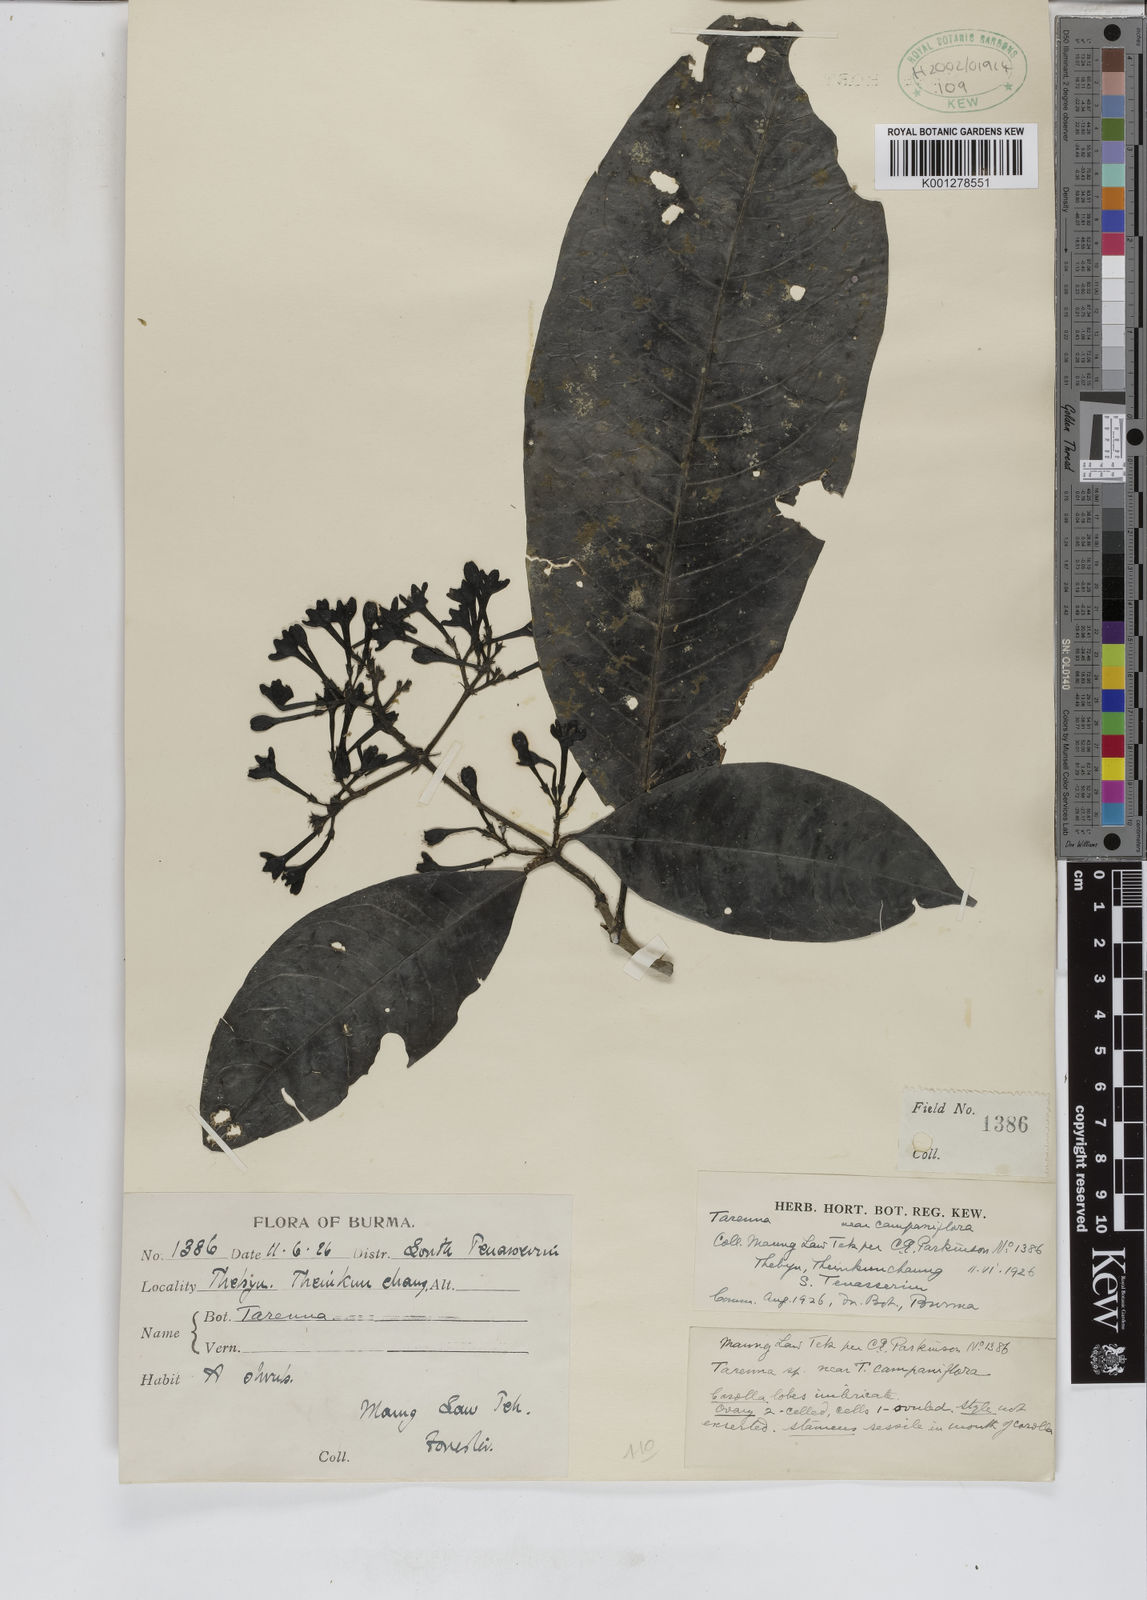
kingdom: Plantae
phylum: Tracheophyta
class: Magnoliopsida
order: Gentianales
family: Rubiaceae
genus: Tarenna
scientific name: Tarenna campaniflora
